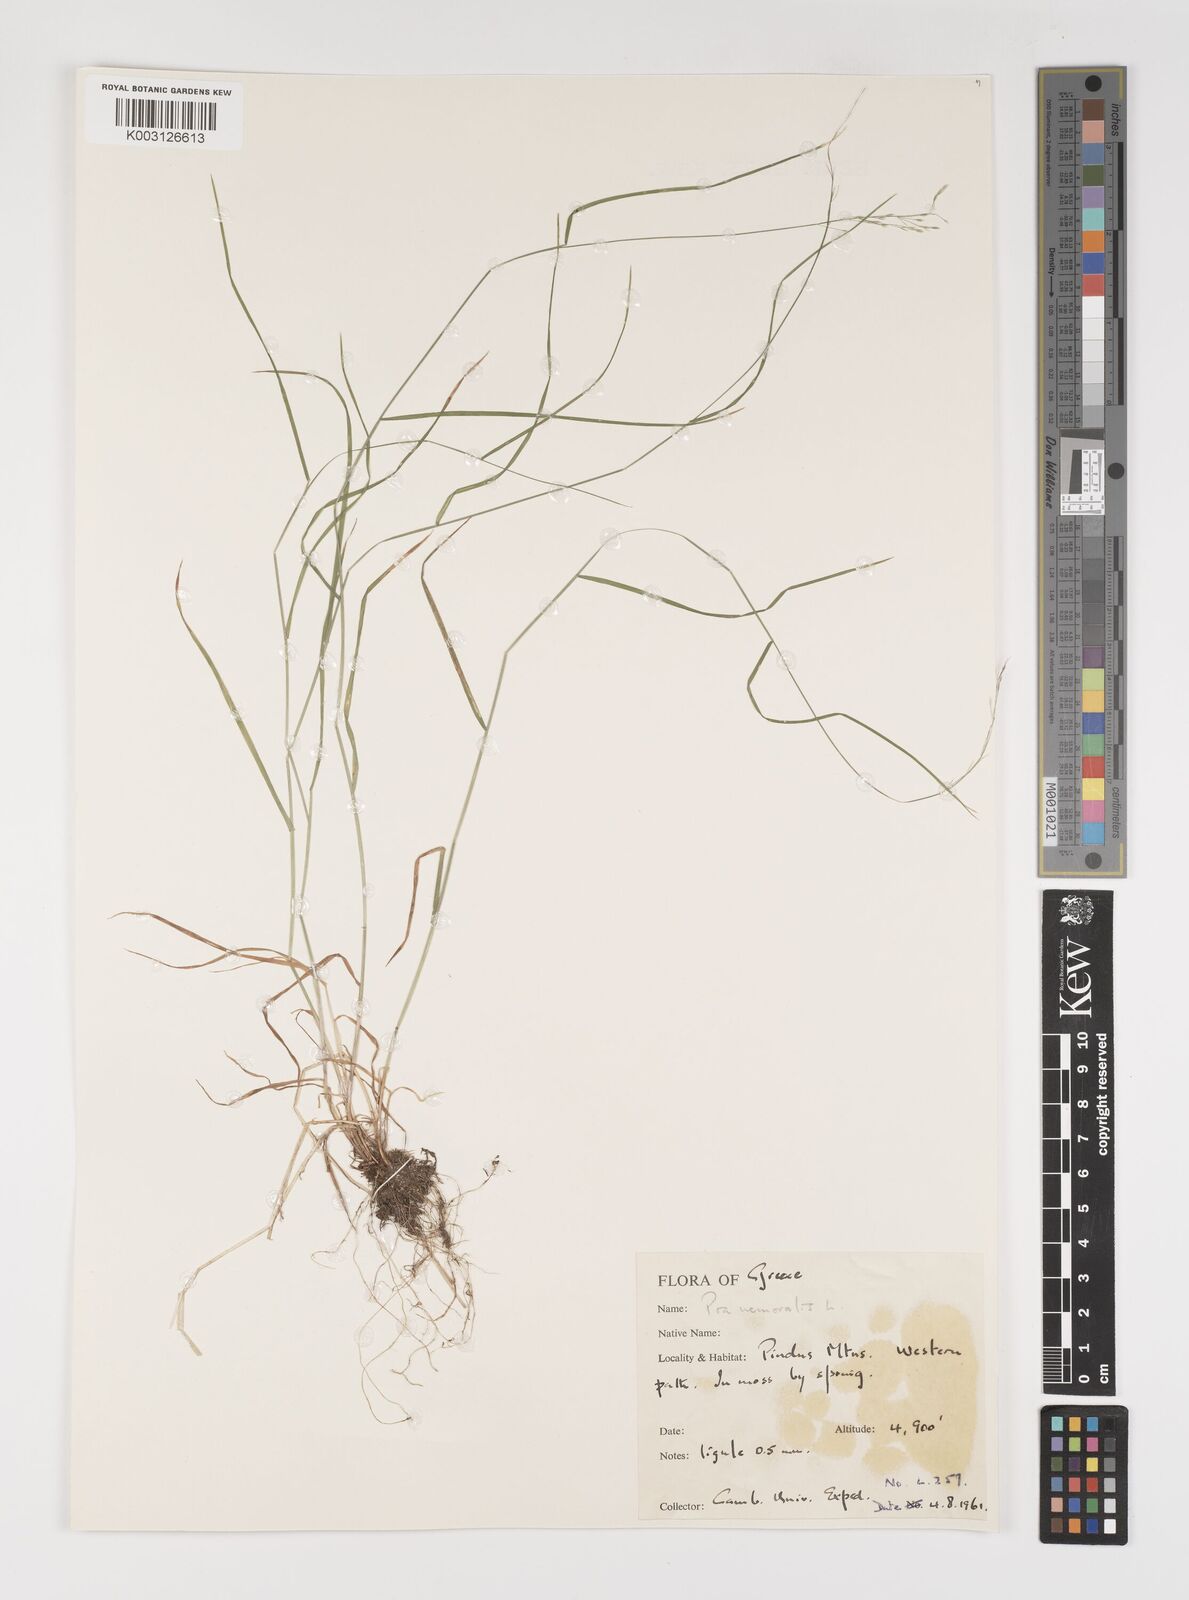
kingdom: Plantae
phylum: Tracheophyta
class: Liliopsida
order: Poales
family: Poaceae
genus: Poa
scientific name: Poa nemoralis
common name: Wood bluegrass
